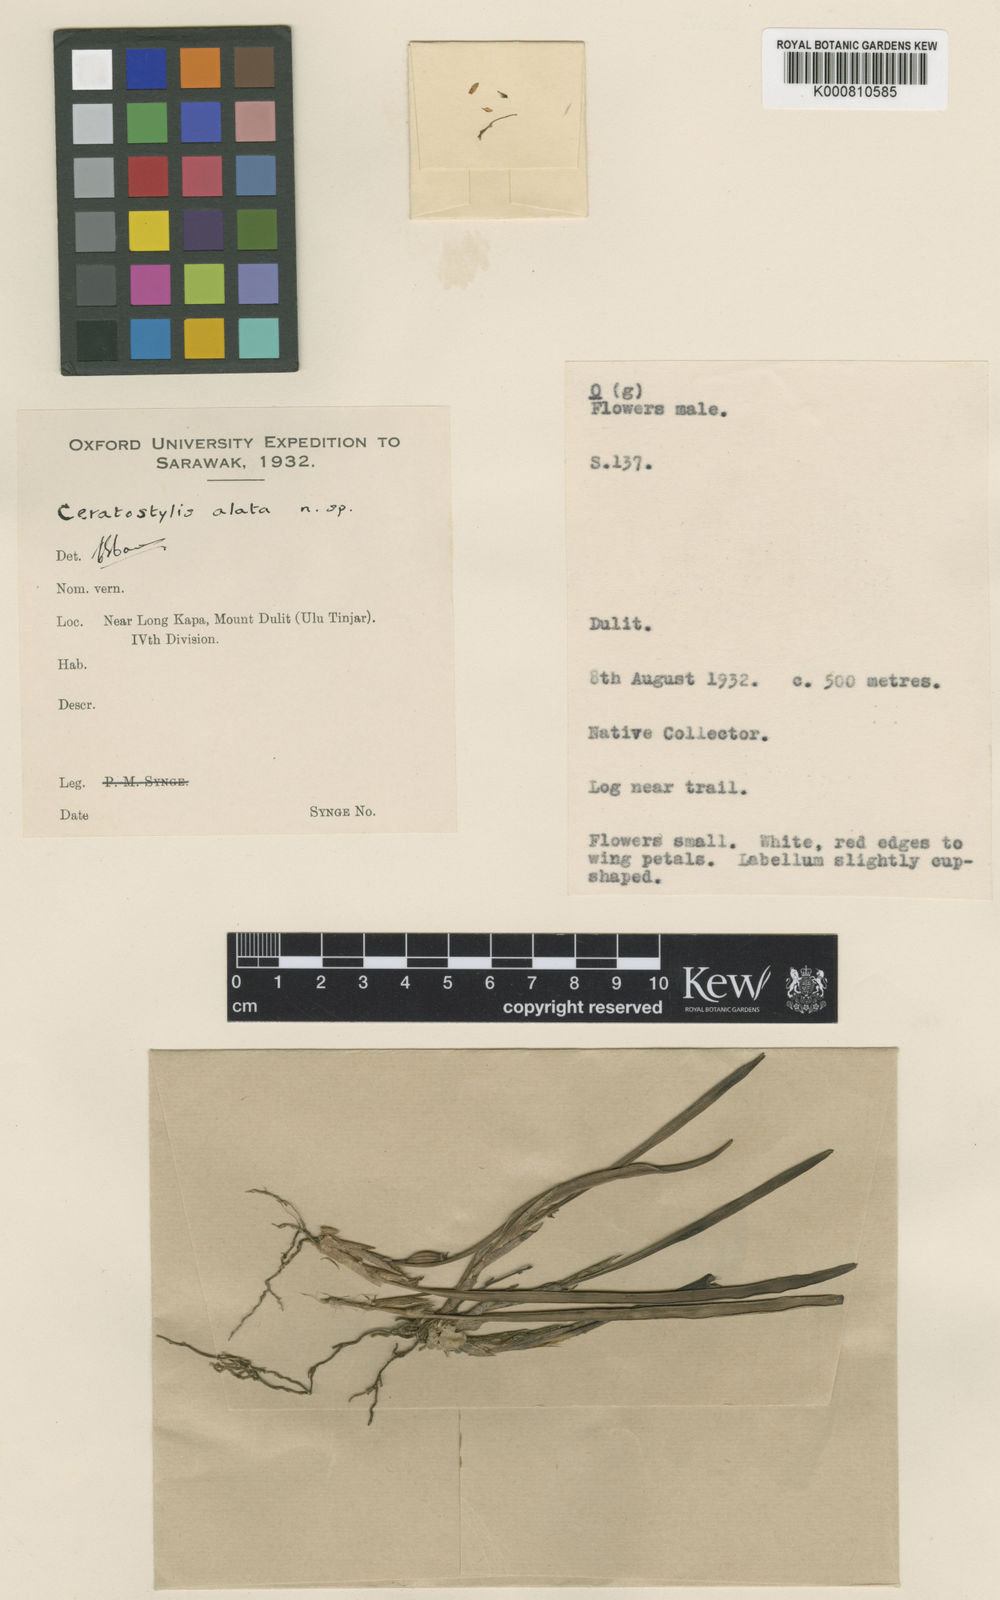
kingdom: Plantae
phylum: Tracheophyta
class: Liliopsida
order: Asparagales
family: Orchidaceae
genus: Ceratostylis
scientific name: Ceratostylis alata
